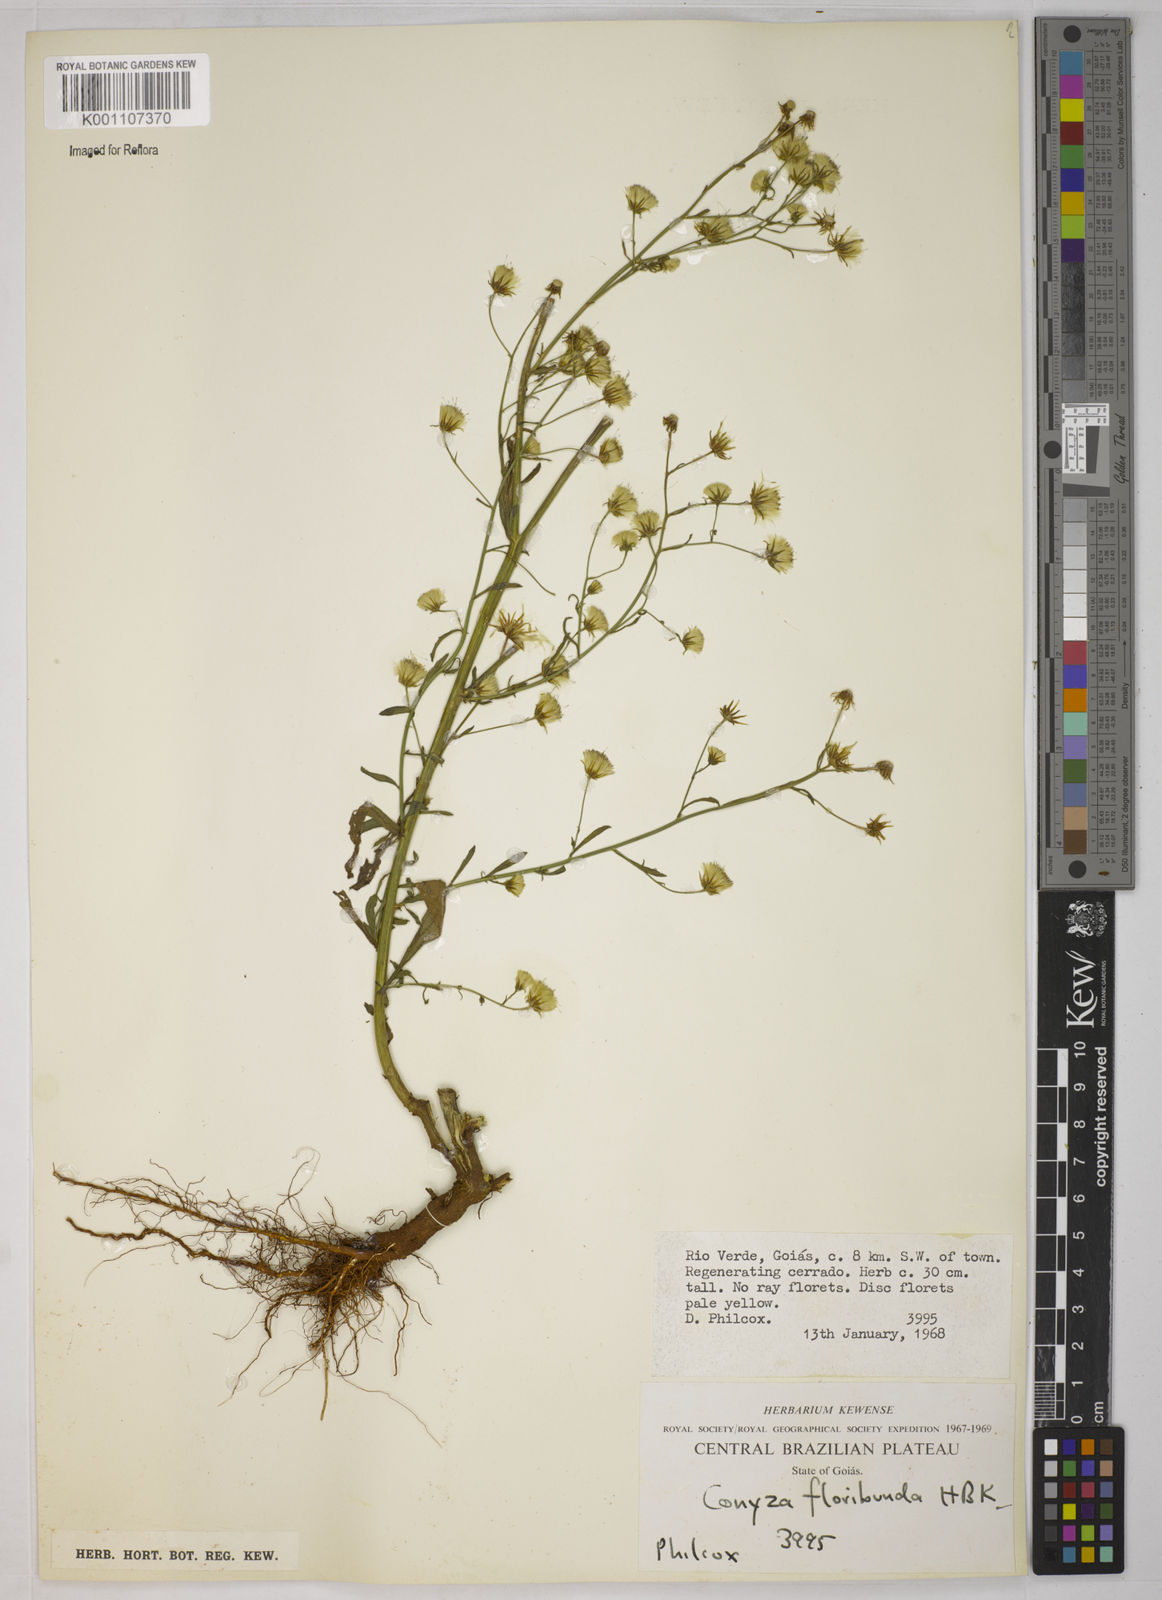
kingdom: Plantae
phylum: Tracheophyta
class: Magnoliopsida
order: Asterales
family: Asteraceae
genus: Erigeron
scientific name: Erigeron sumatrensis
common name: Daisy
